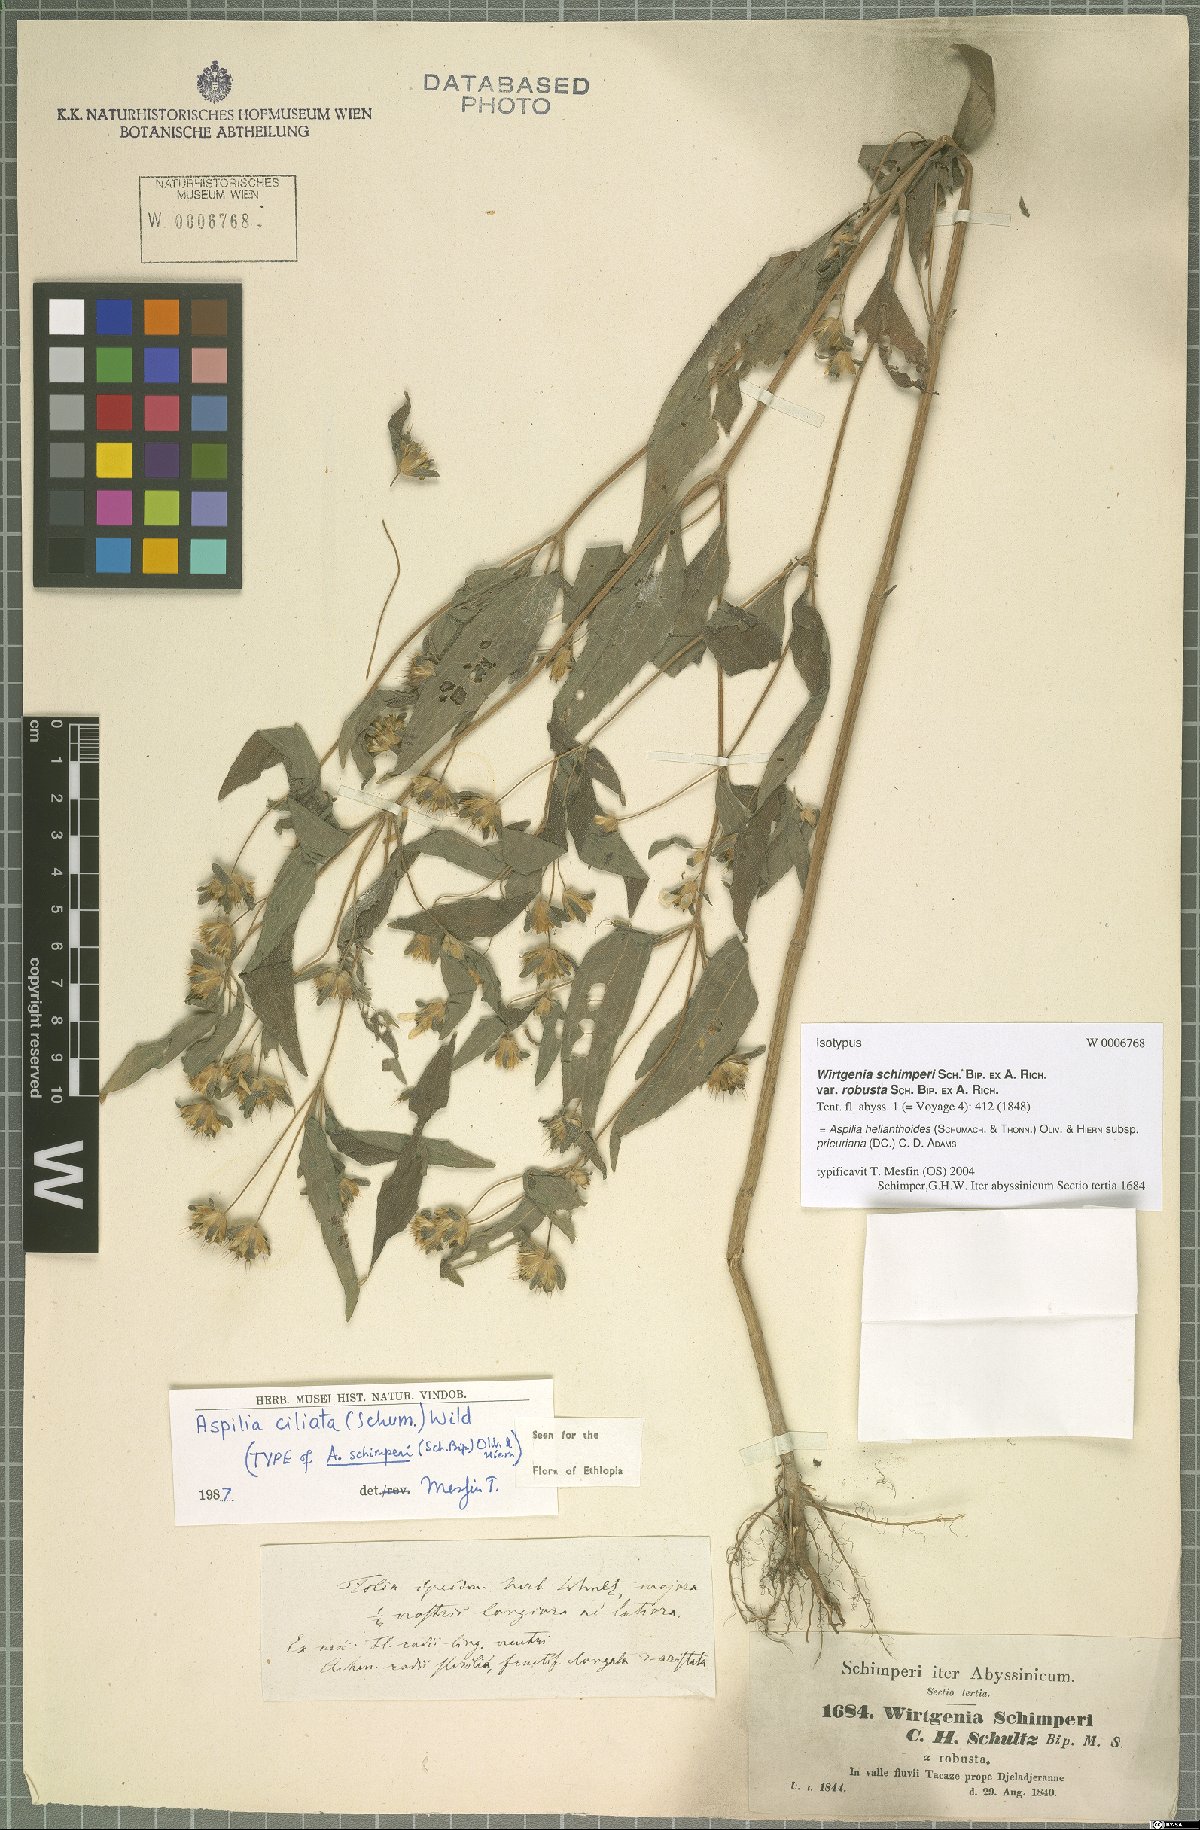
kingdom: Plantae
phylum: Tracheophyta
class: Magnoliopsida
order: Asterales
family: Asteraceae
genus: Aspilia
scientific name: Aspilia helianthoides
